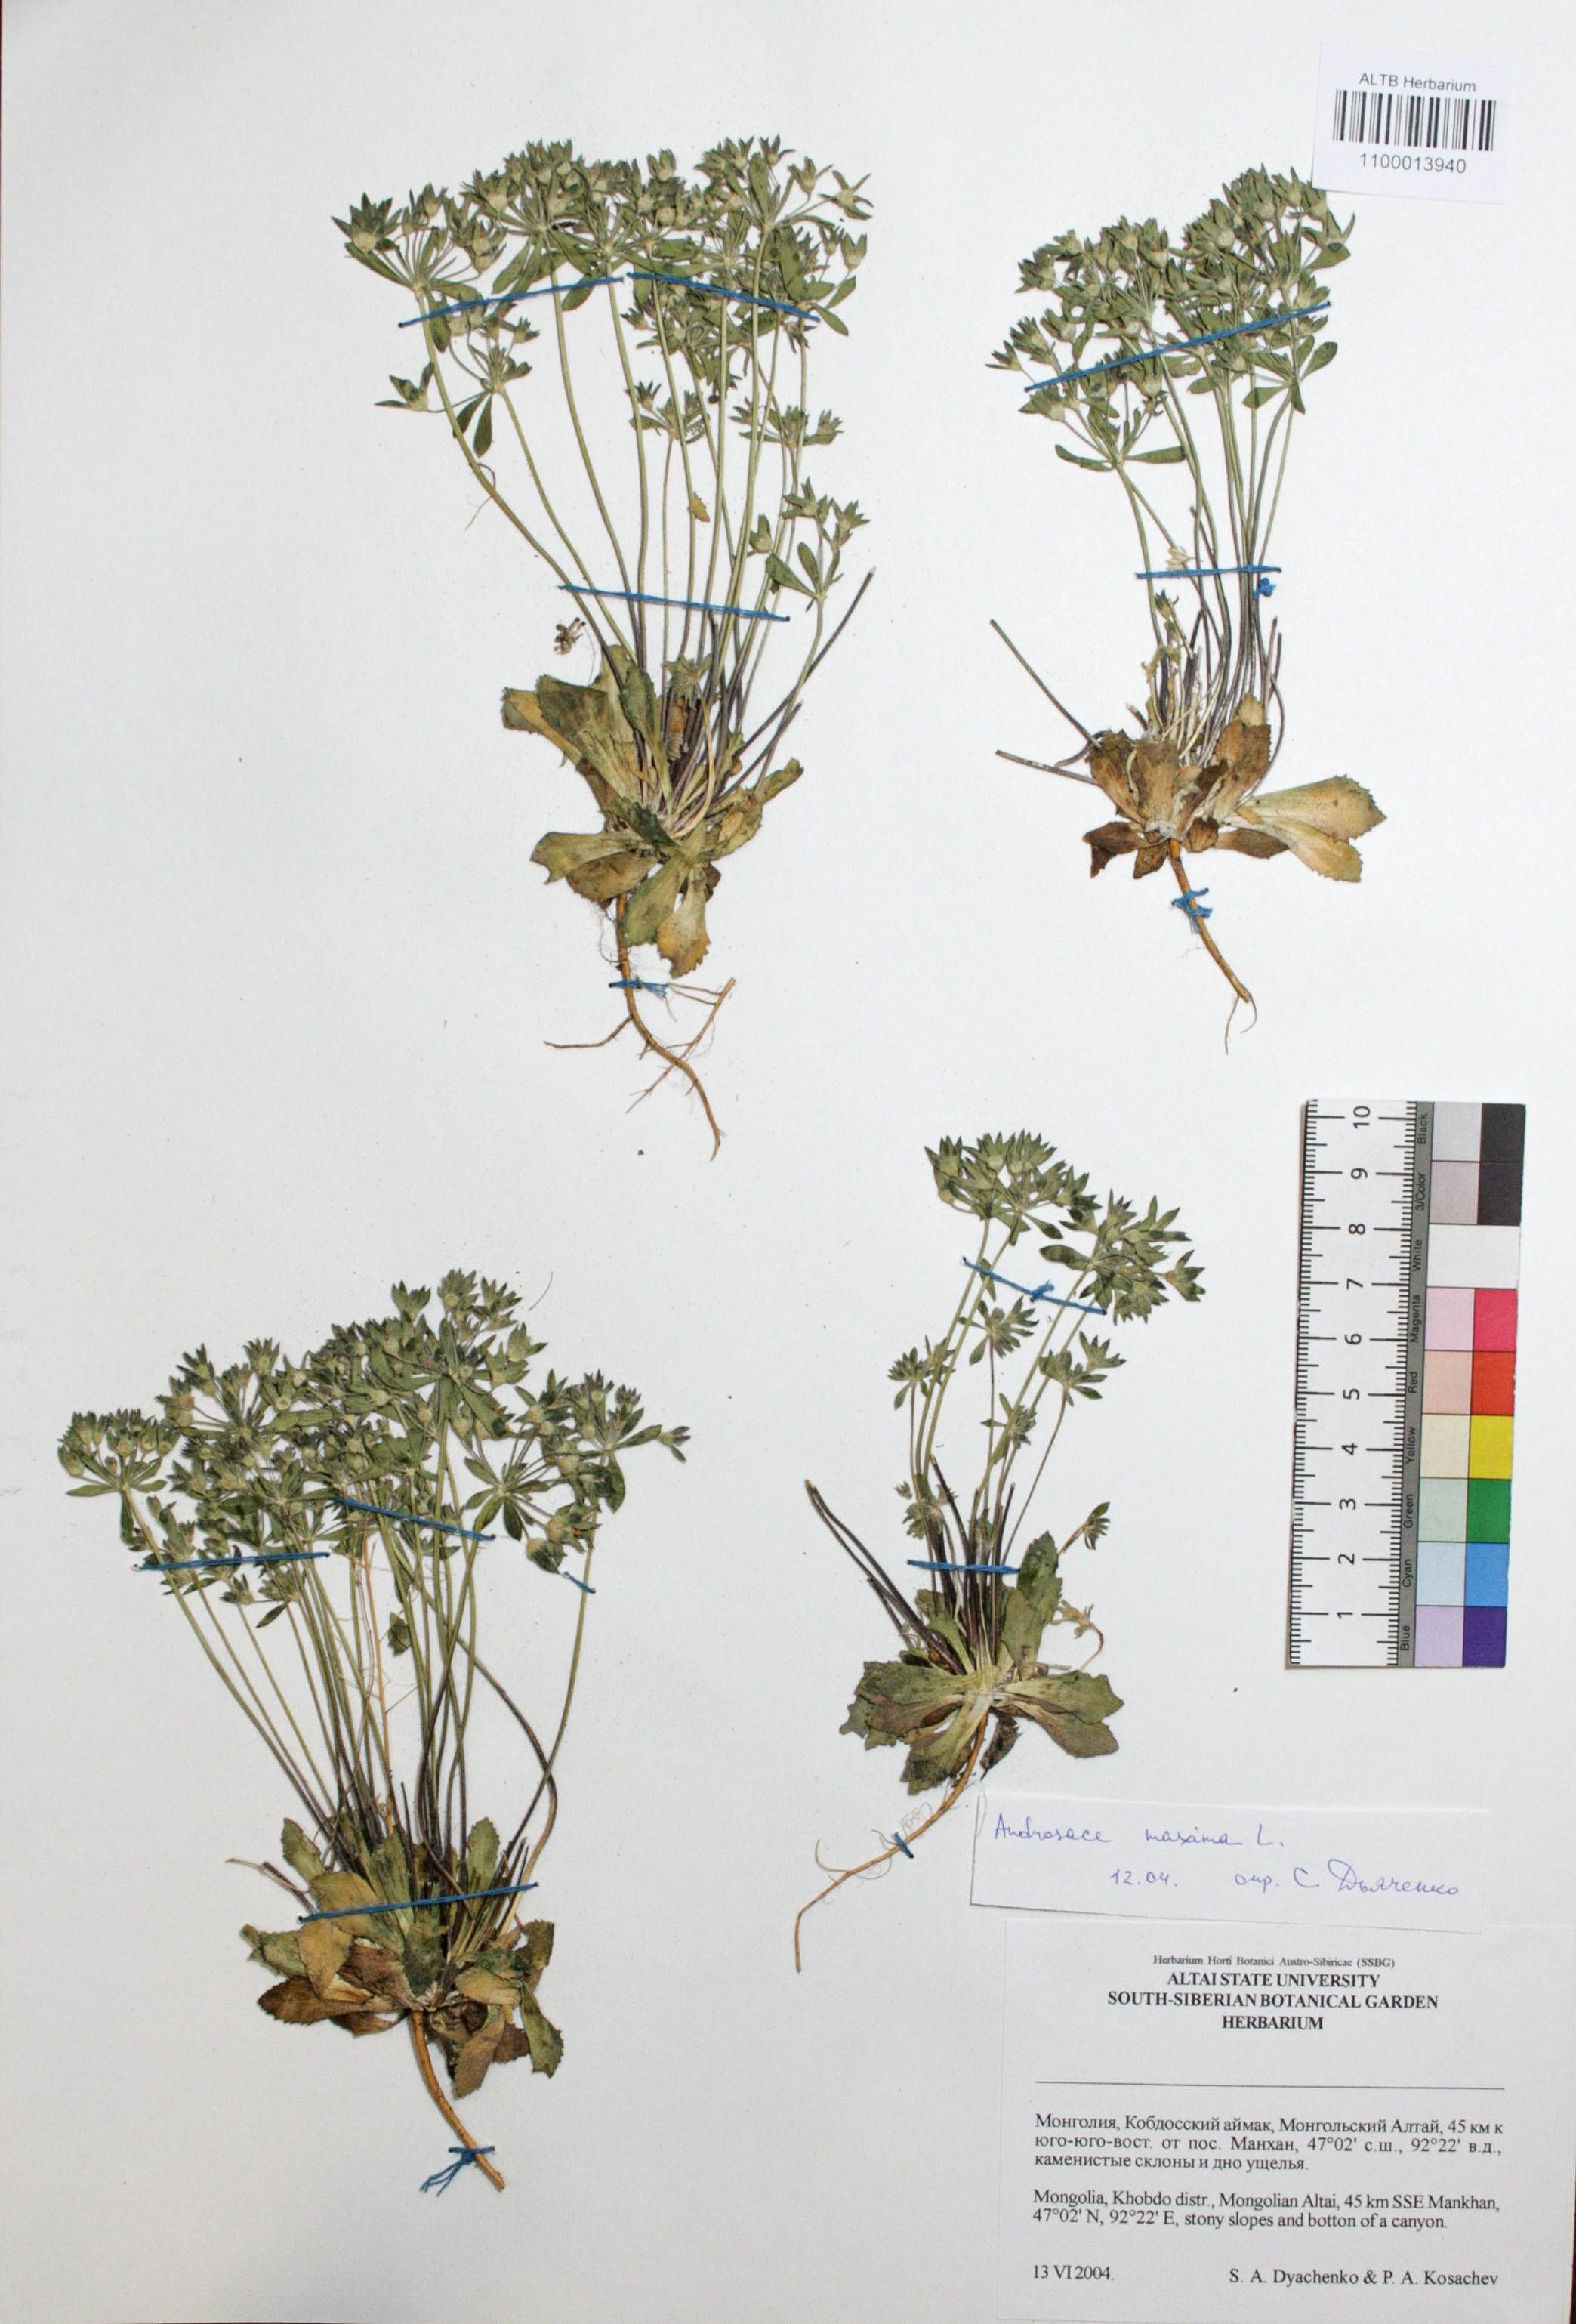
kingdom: Plantae
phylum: Tracheophyta
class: Magnoliopsida
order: Ericales
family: Primulaceae
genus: Androsace
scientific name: Androsace maxima
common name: Annual androsace
